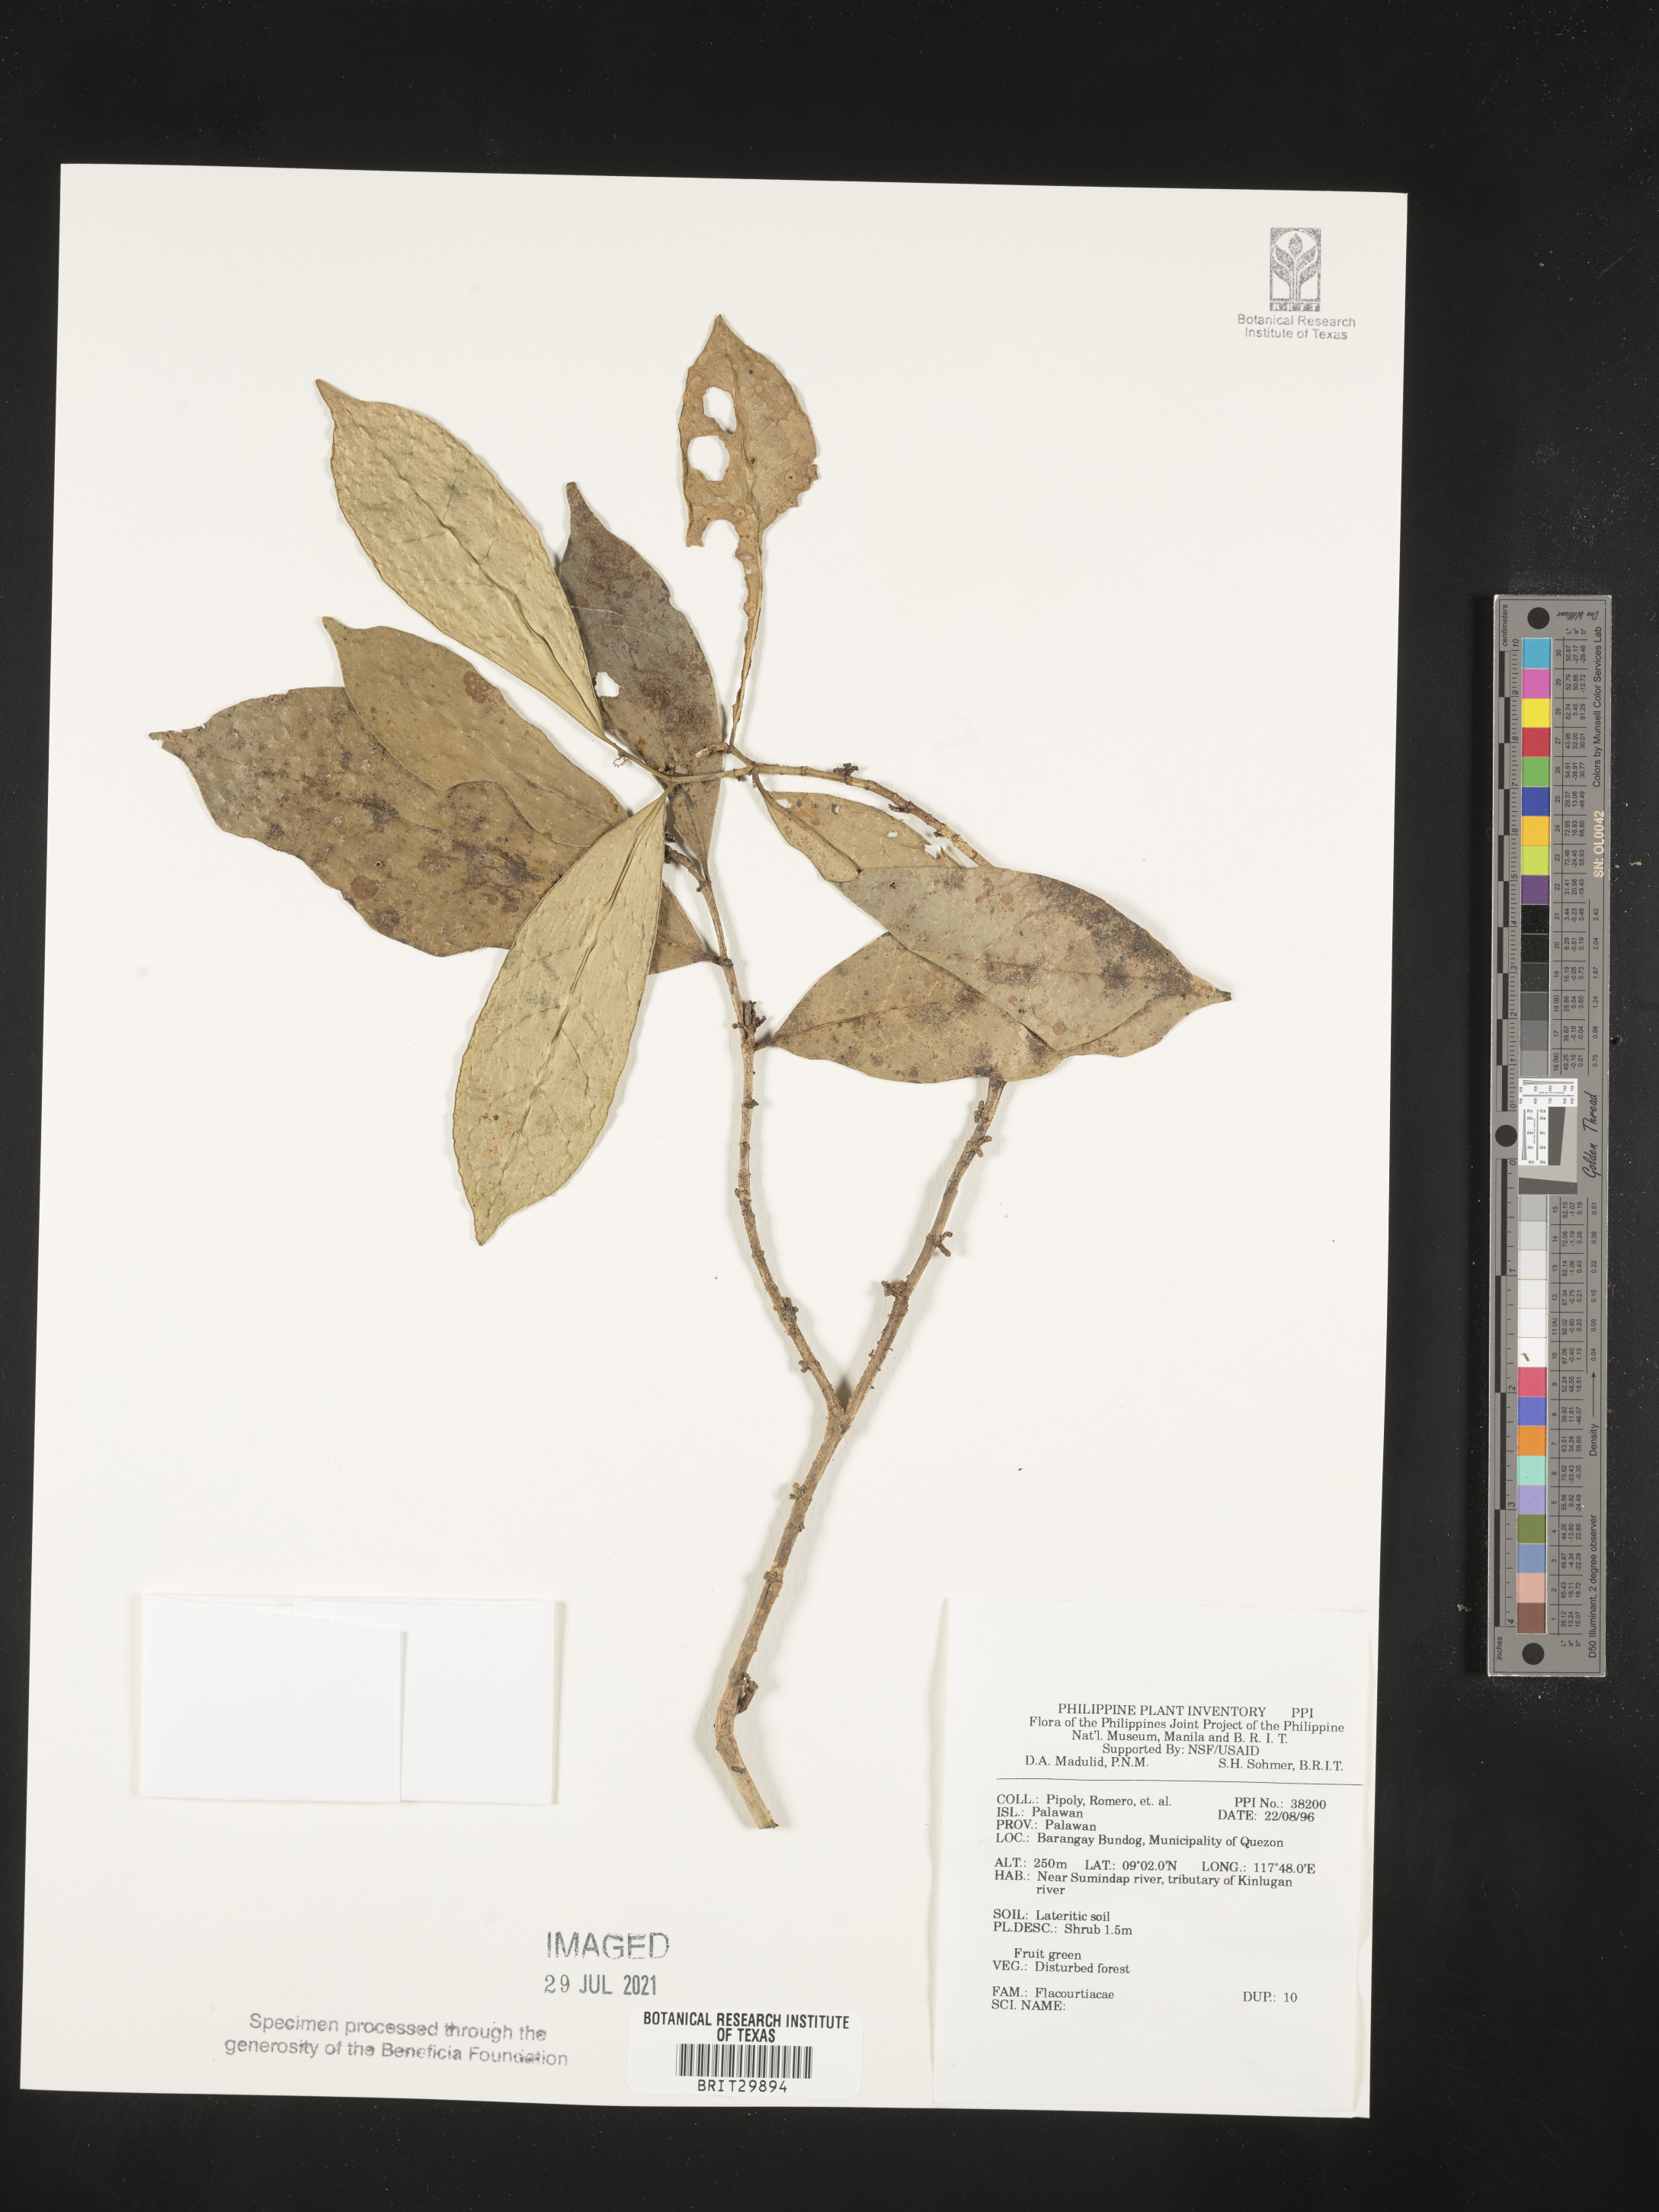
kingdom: Plantae
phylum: Tracheophyta
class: Magnoliopsida
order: Malpighiales
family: Flacourtiaceae
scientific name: Flacourtiaceae
